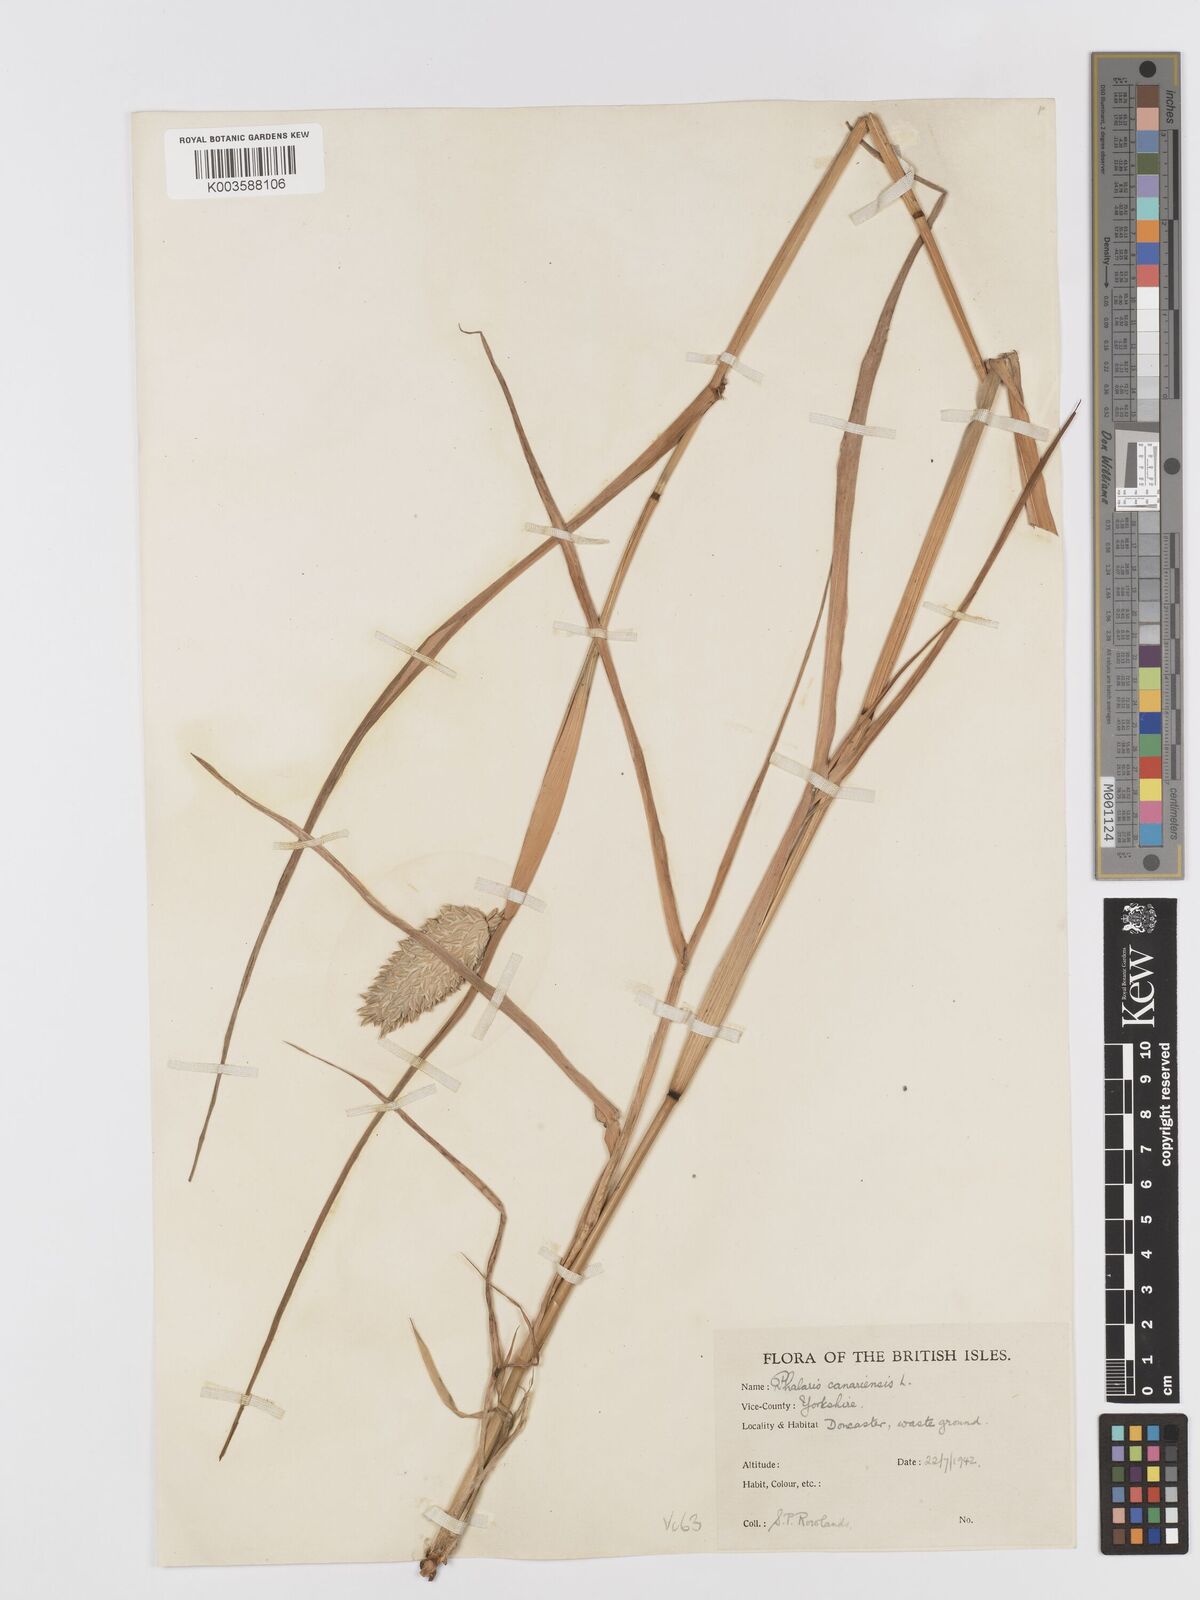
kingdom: Plantae
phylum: Tracheophyta
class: Liliopsida
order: Poales
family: Poaceae
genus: Phalaris
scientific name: Phalaris canariensis
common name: Annual canarygrass
